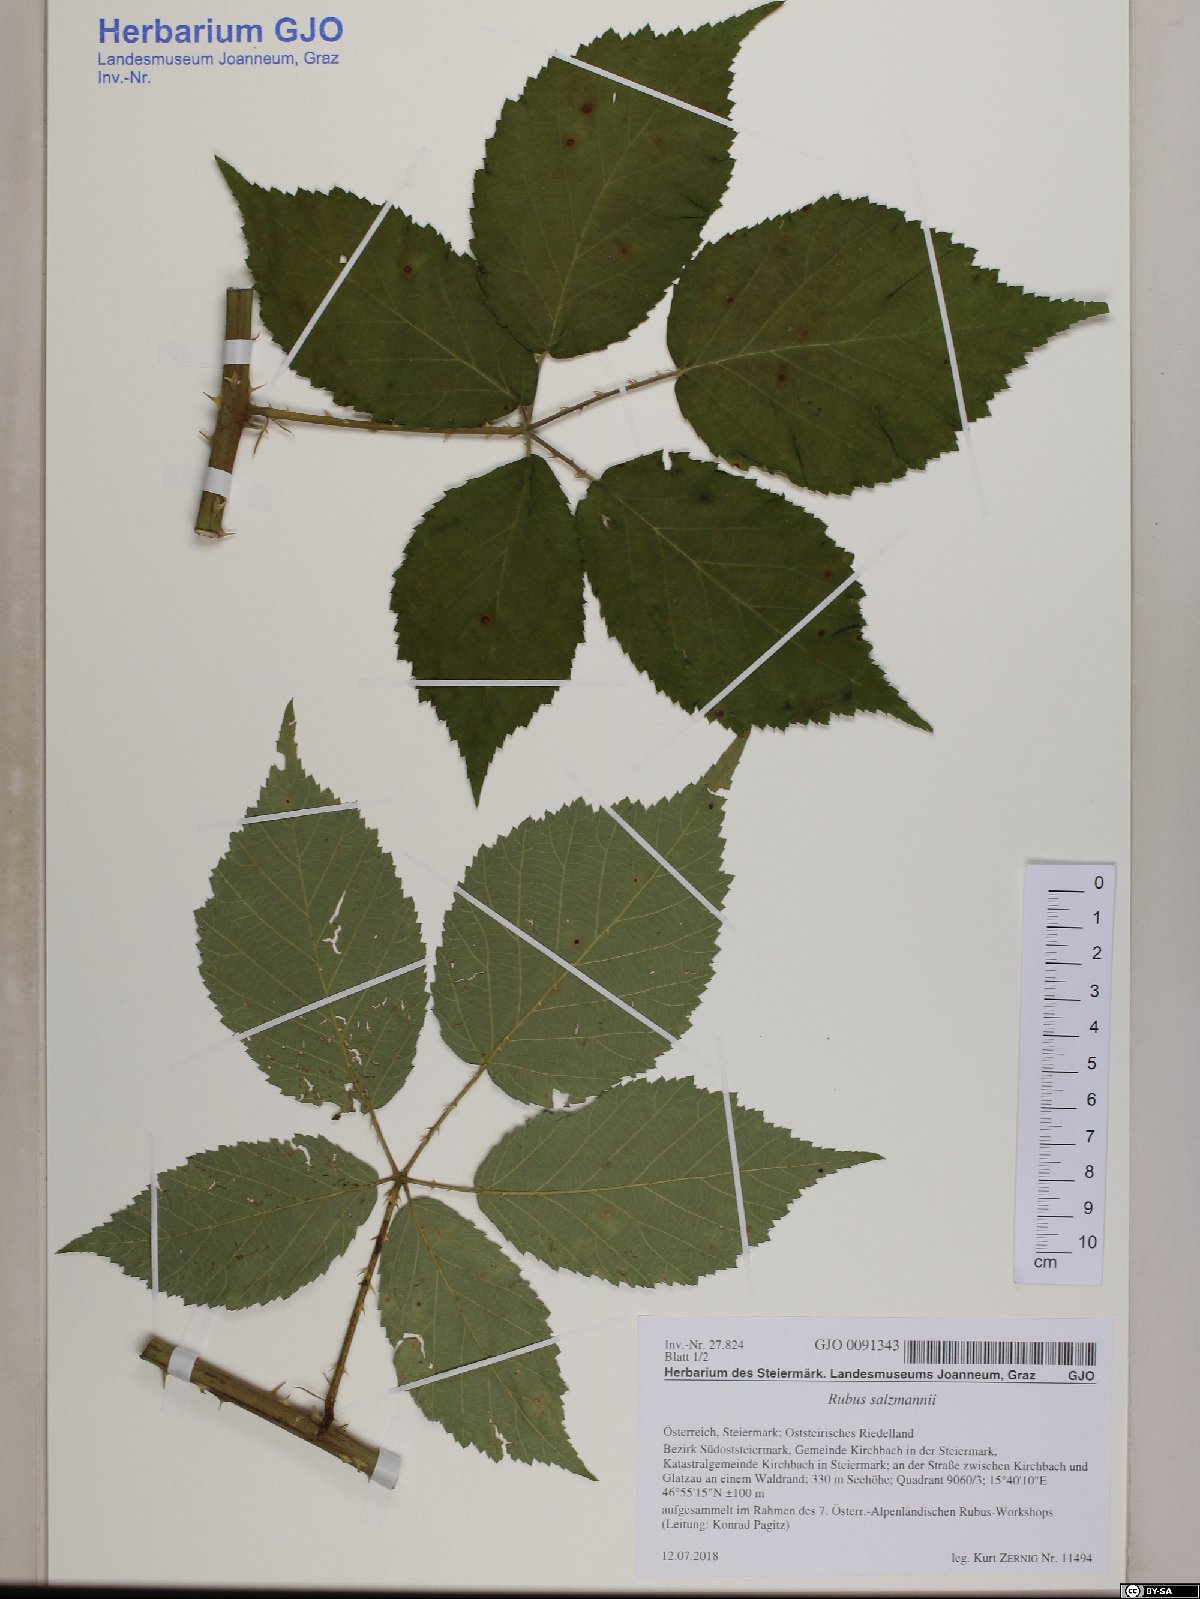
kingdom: Plantae
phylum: Tracheophyta
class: Magnoliopsida
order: Rosales
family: Rosaceae
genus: Rubus
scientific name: Rubus salzmannii
